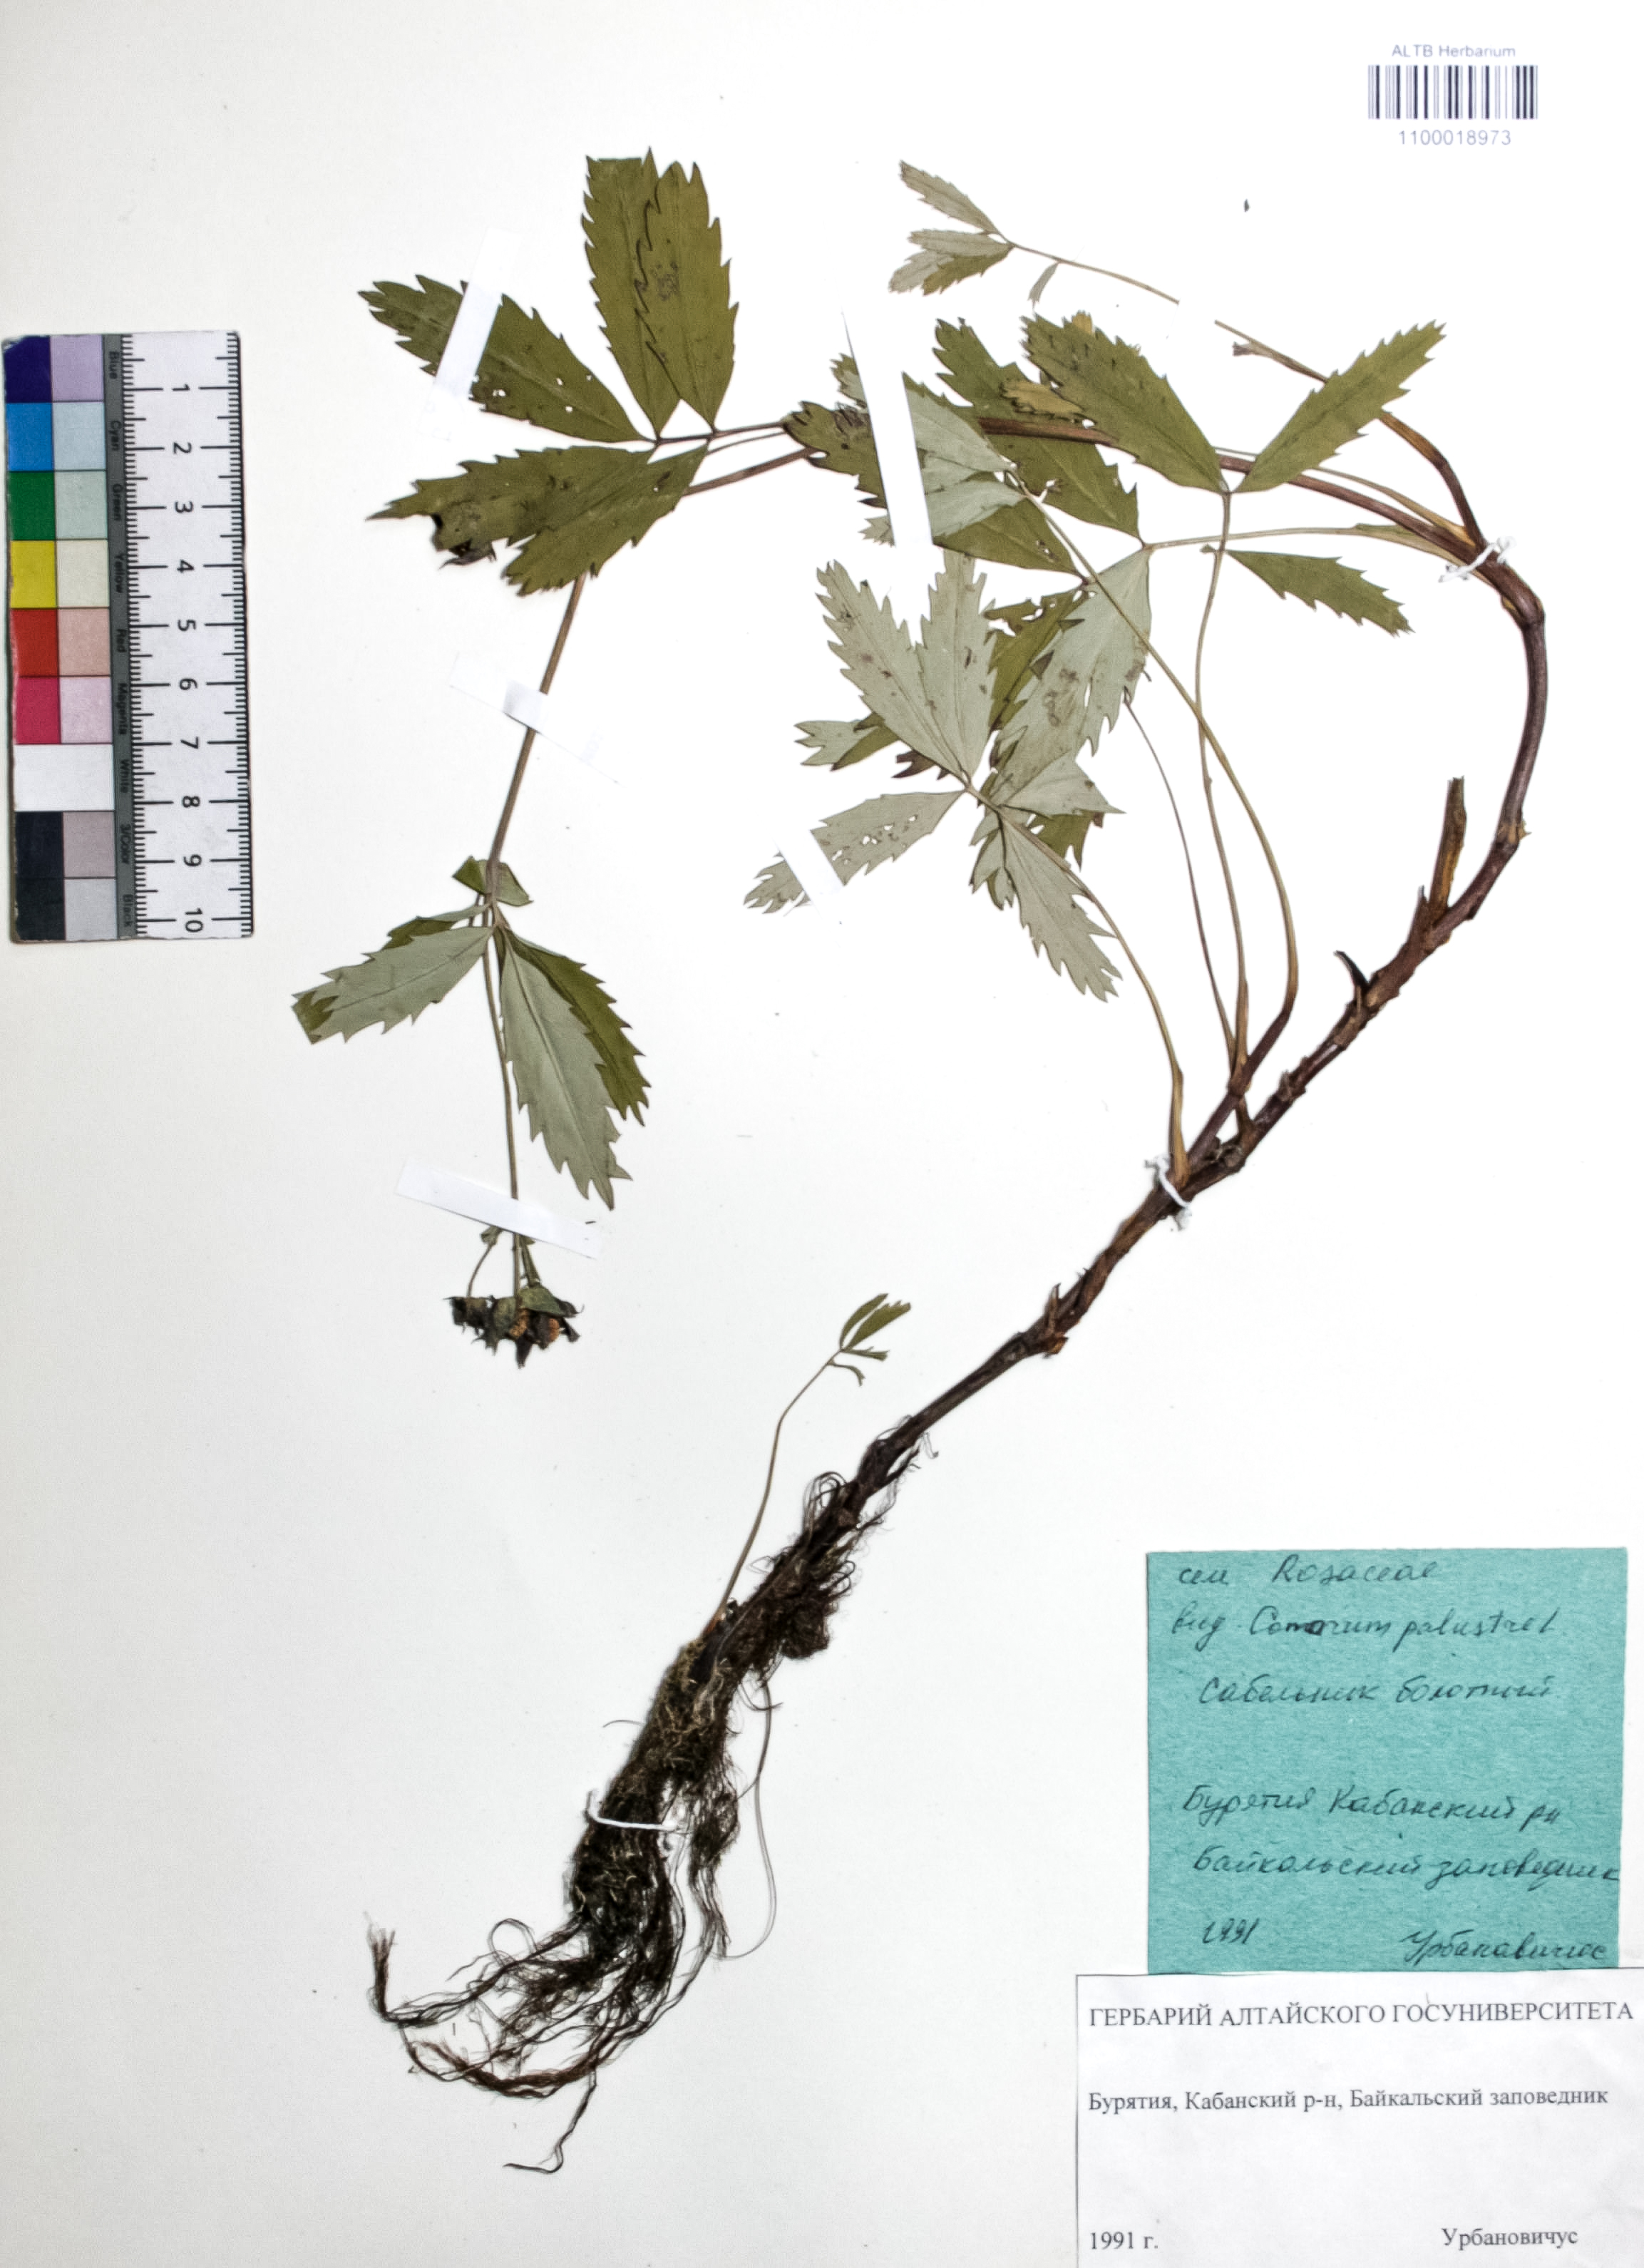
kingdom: Plantae
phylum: Tracheophyta
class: Magnoliopsida
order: Rosales
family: Rosaceae
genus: Comarum
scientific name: Comarum palustre
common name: Marsh cinquefoil
